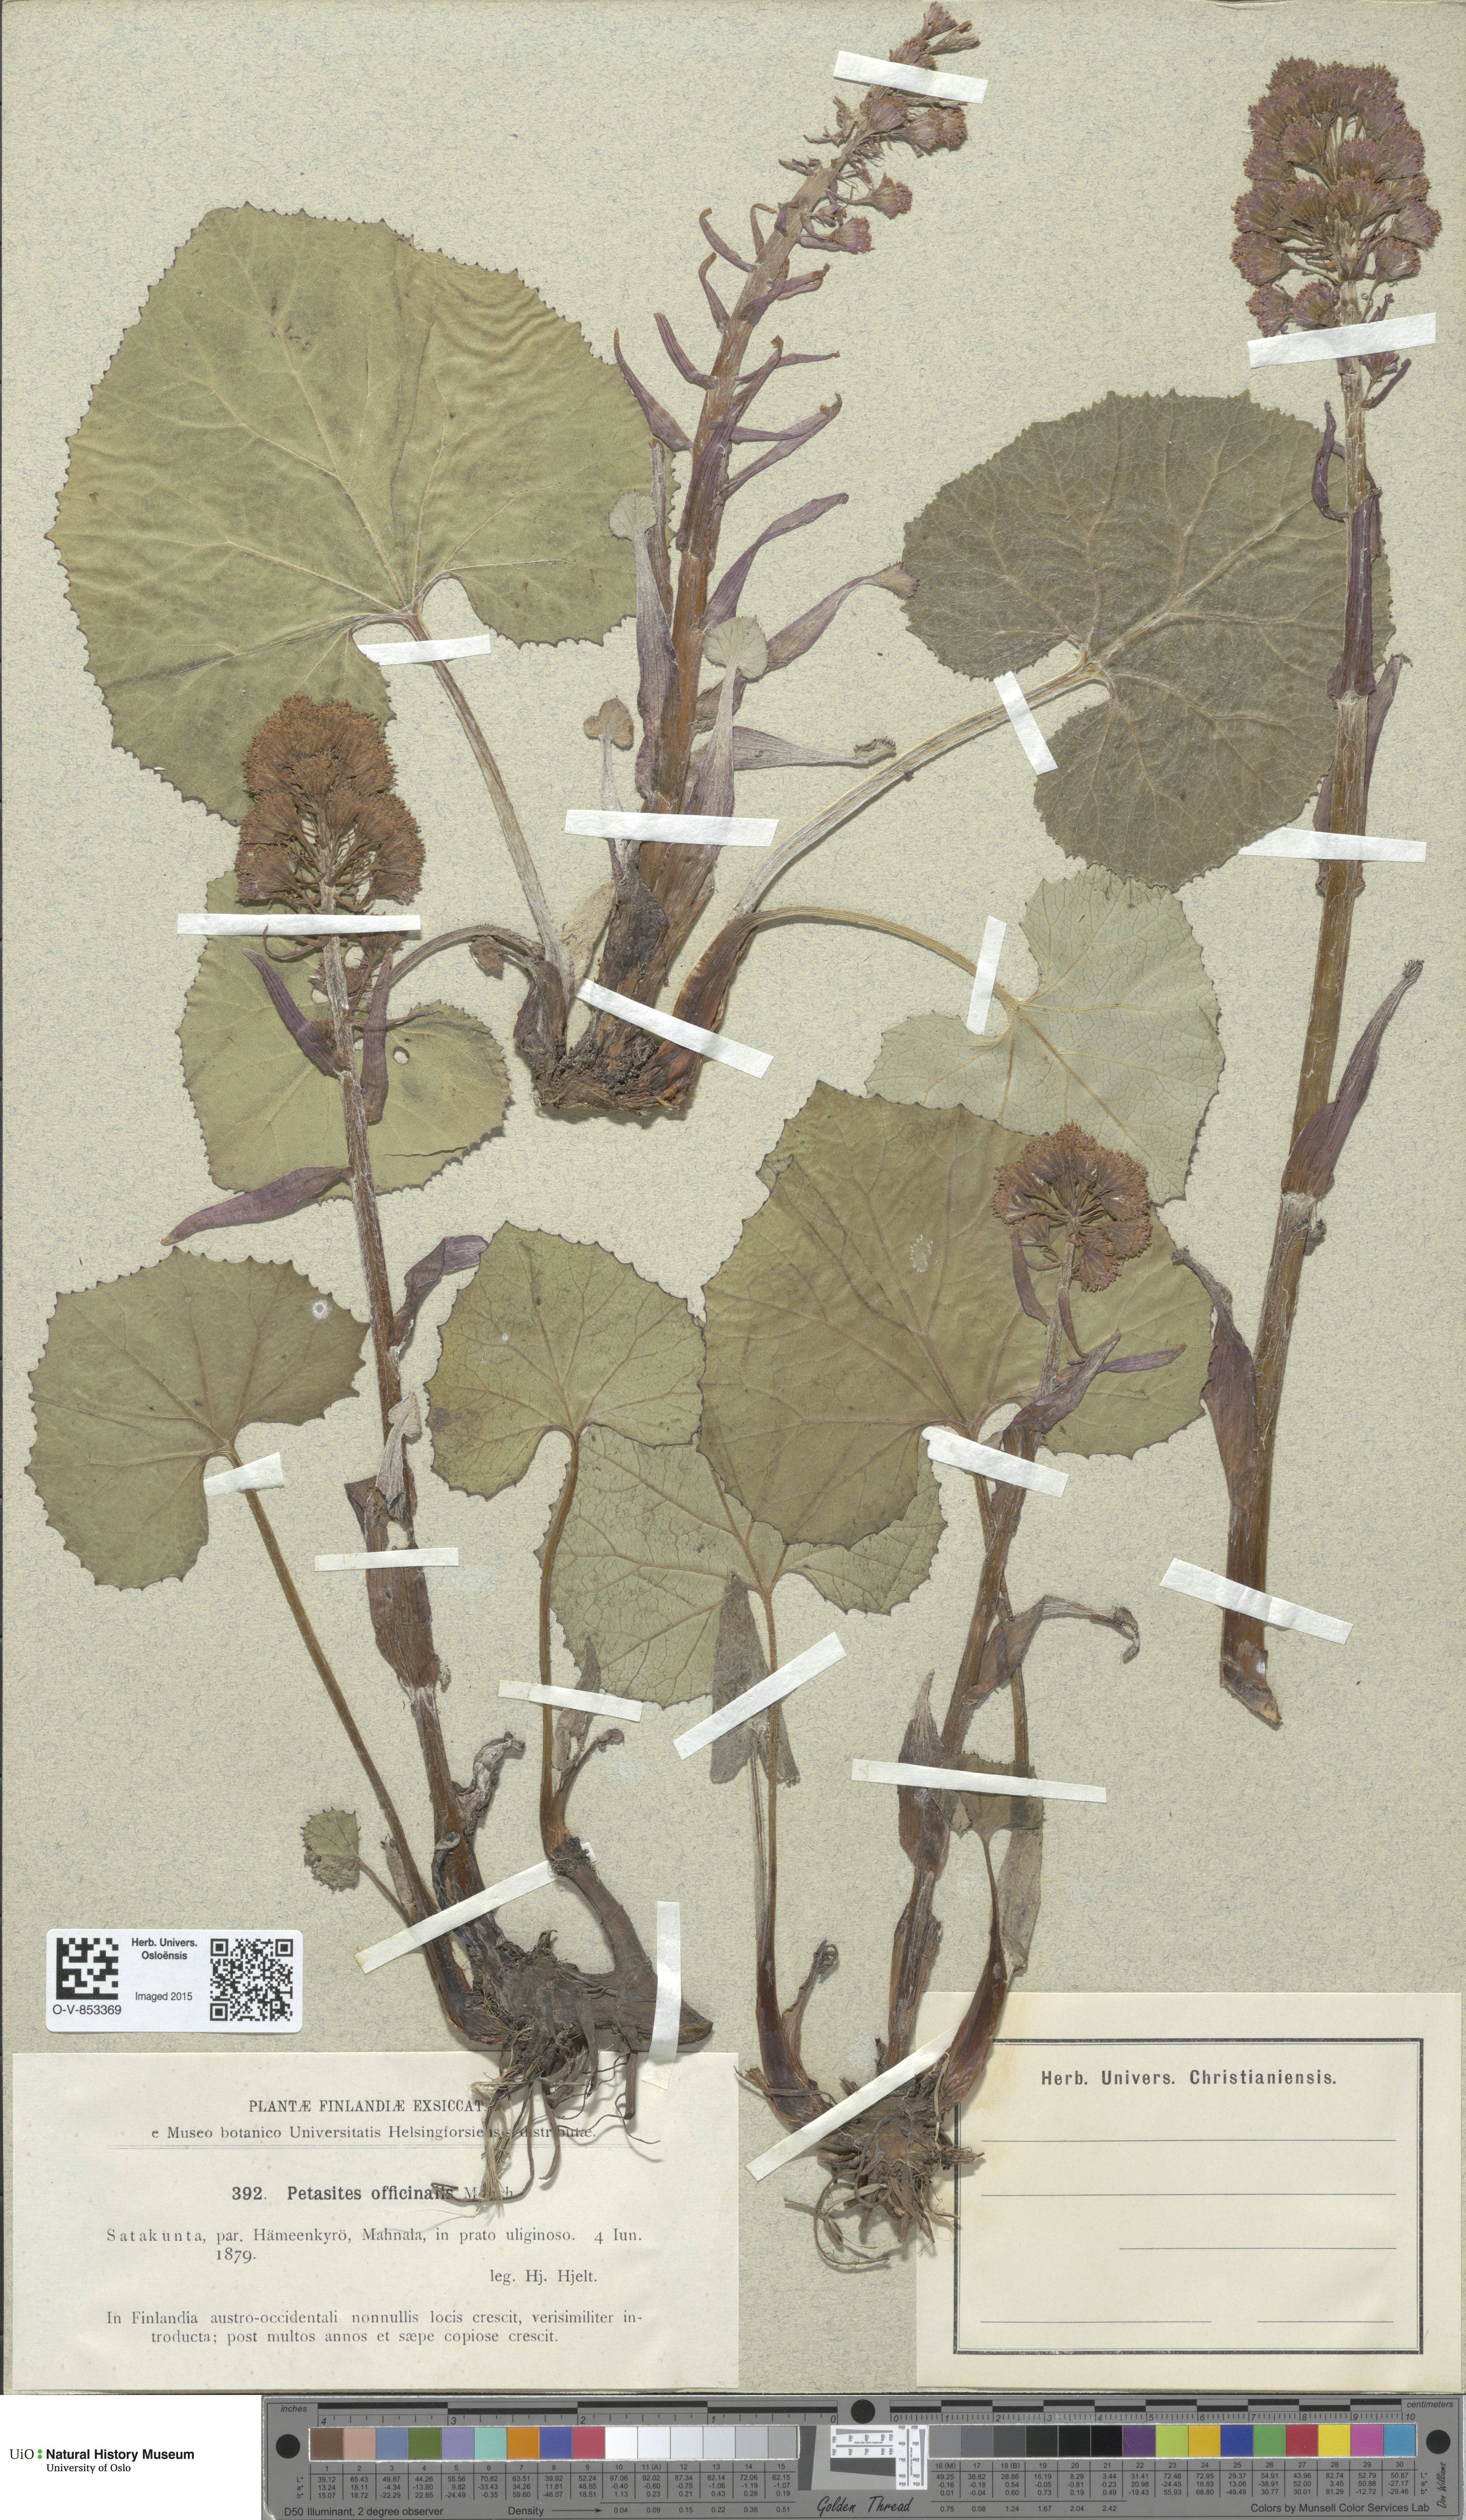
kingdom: Plantae
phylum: Tracheophyta
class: Magnoliopsida
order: Asterales
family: Asteraceae
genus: Petasites
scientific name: Petasites hybridus
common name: Butterbur
